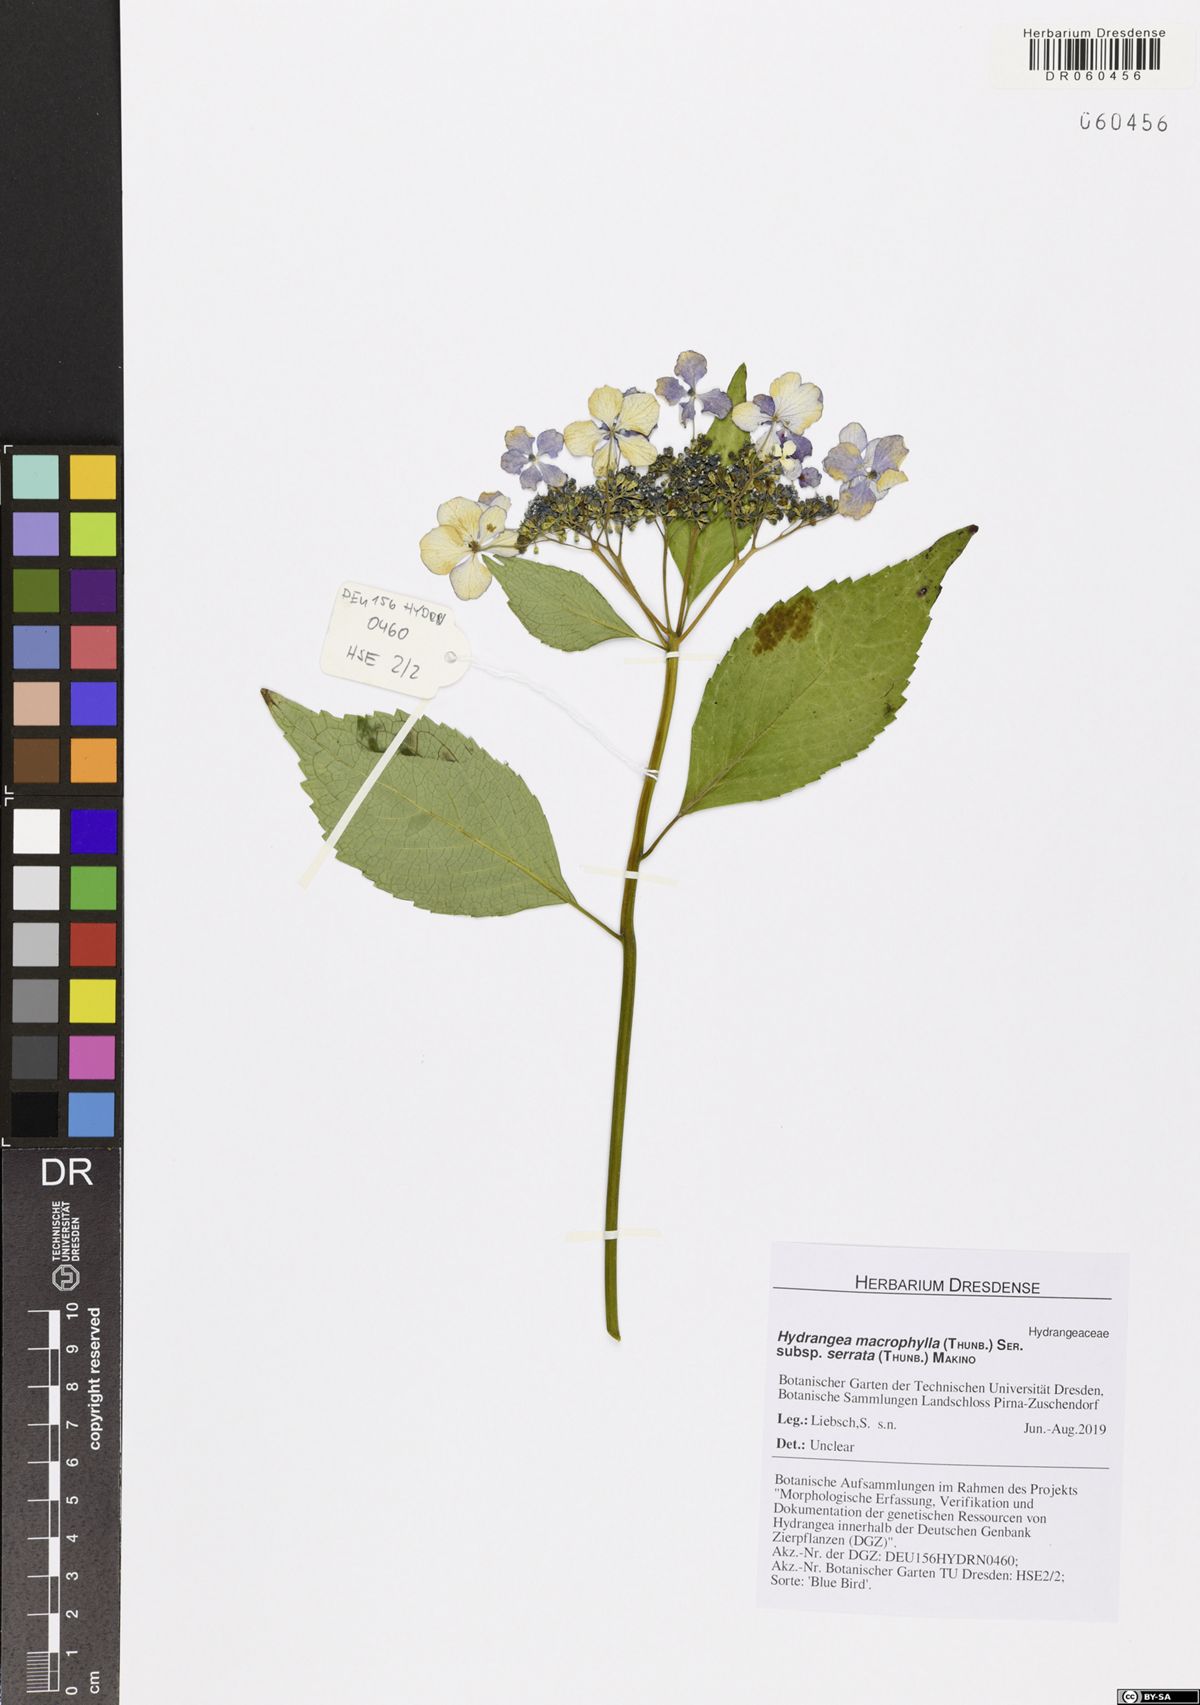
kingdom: Plantae
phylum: Tracheophyta
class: Magnoliopsida
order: Cornales
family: Hydrangeaceae
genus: Hydrangea
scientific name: Hydrangea serrata
